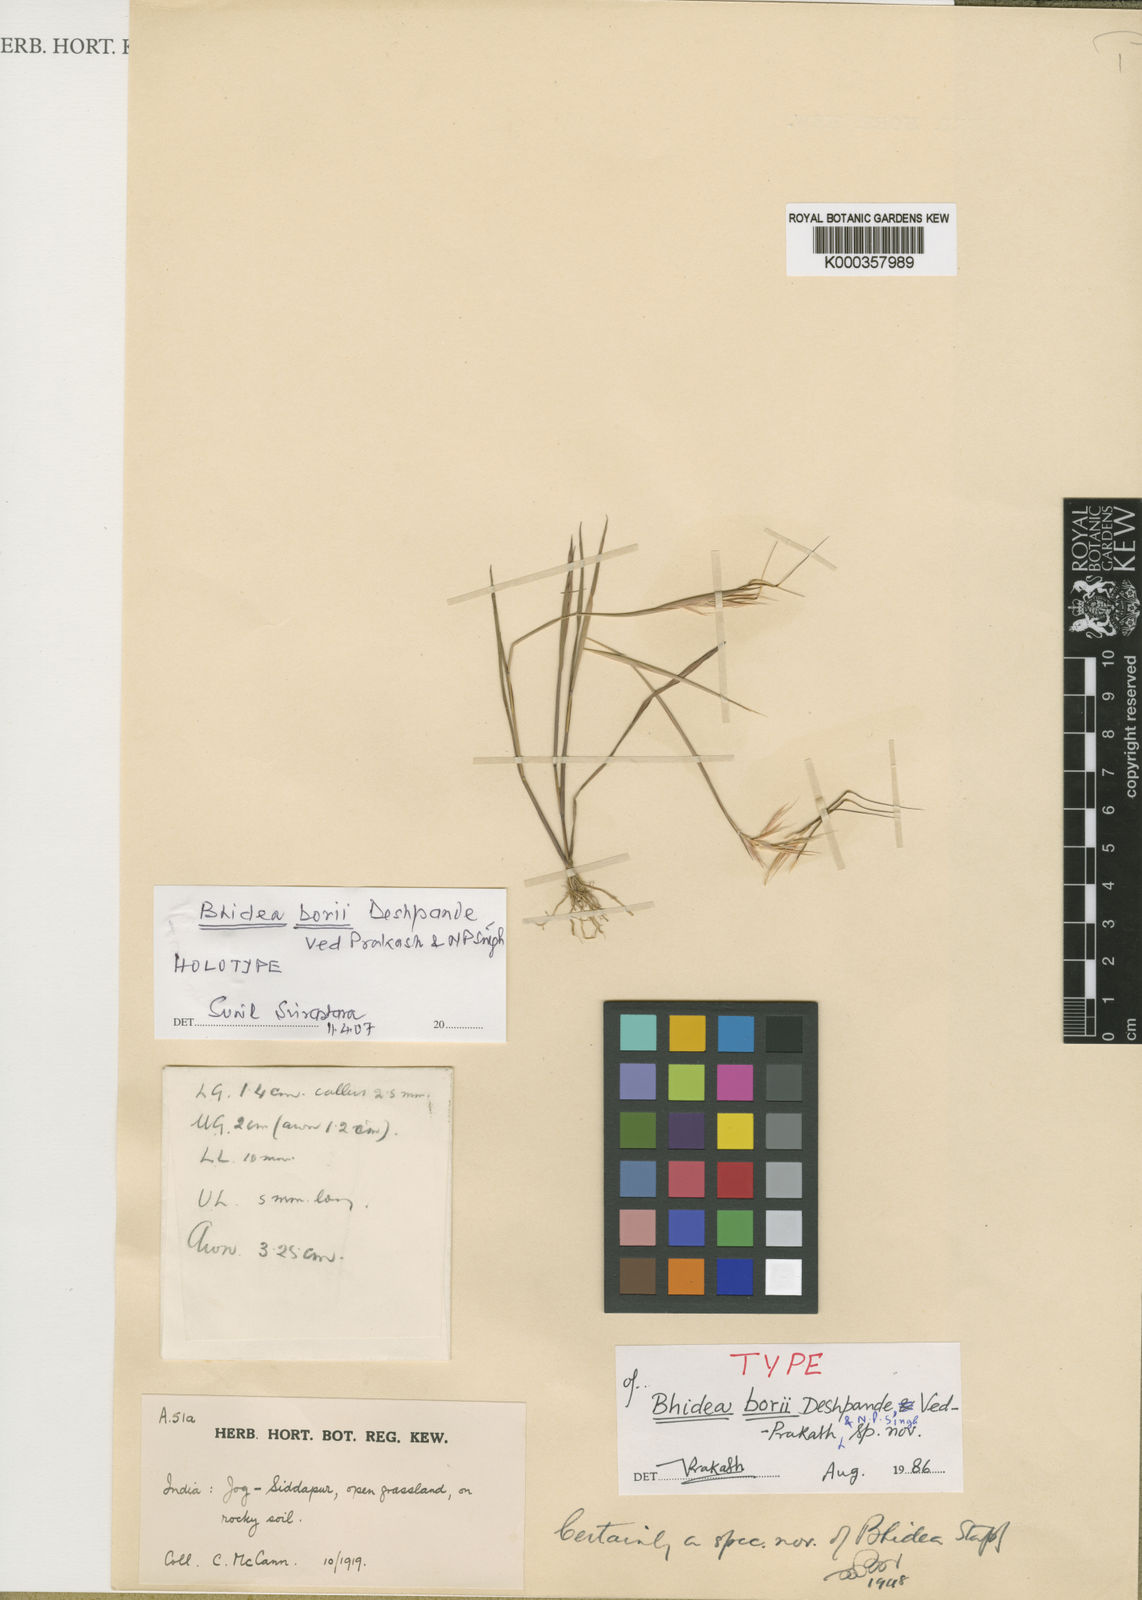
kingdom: Plantae
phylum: Tracheophyta
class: Liliopsida
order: Poales
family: Poaceae
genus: Bhidea
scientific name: Bhidea borii
